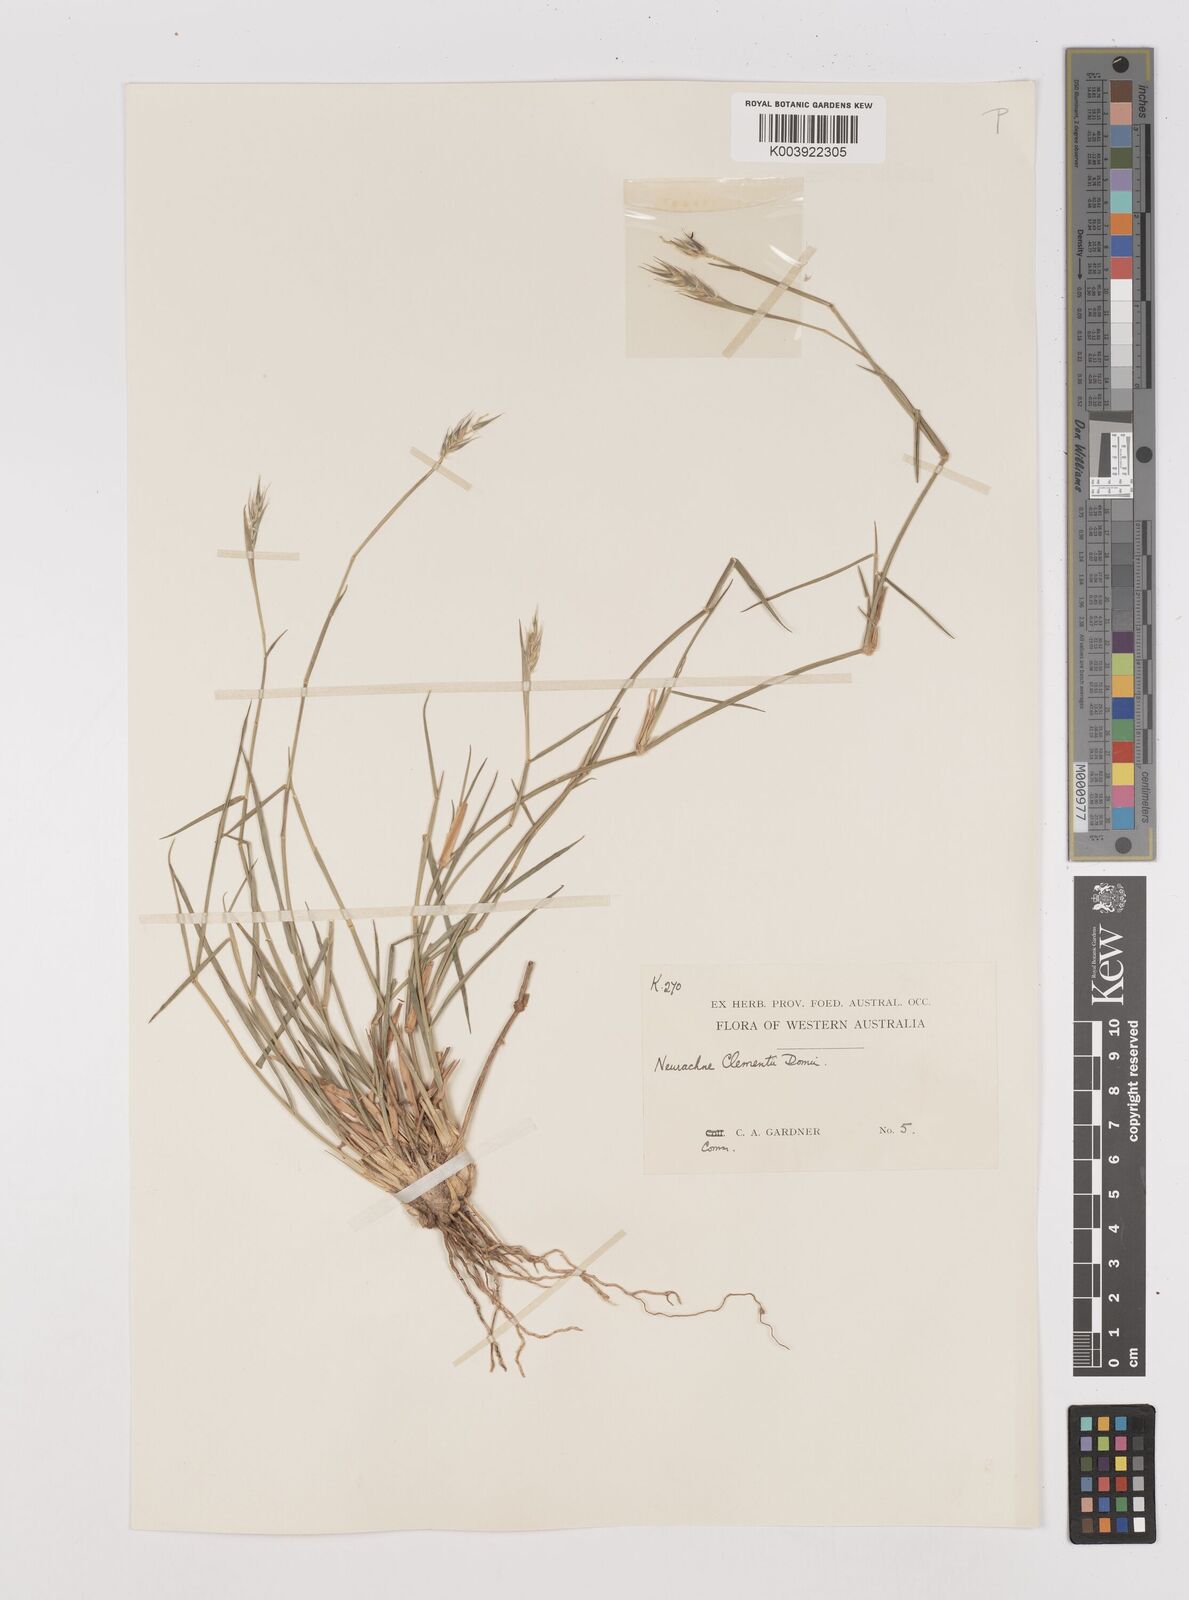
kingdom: Plantae
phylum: Tracheophyta
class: Liliopsida
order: Poales
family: Poaceae
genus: Neurachne
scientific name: Neurachne muelleri
